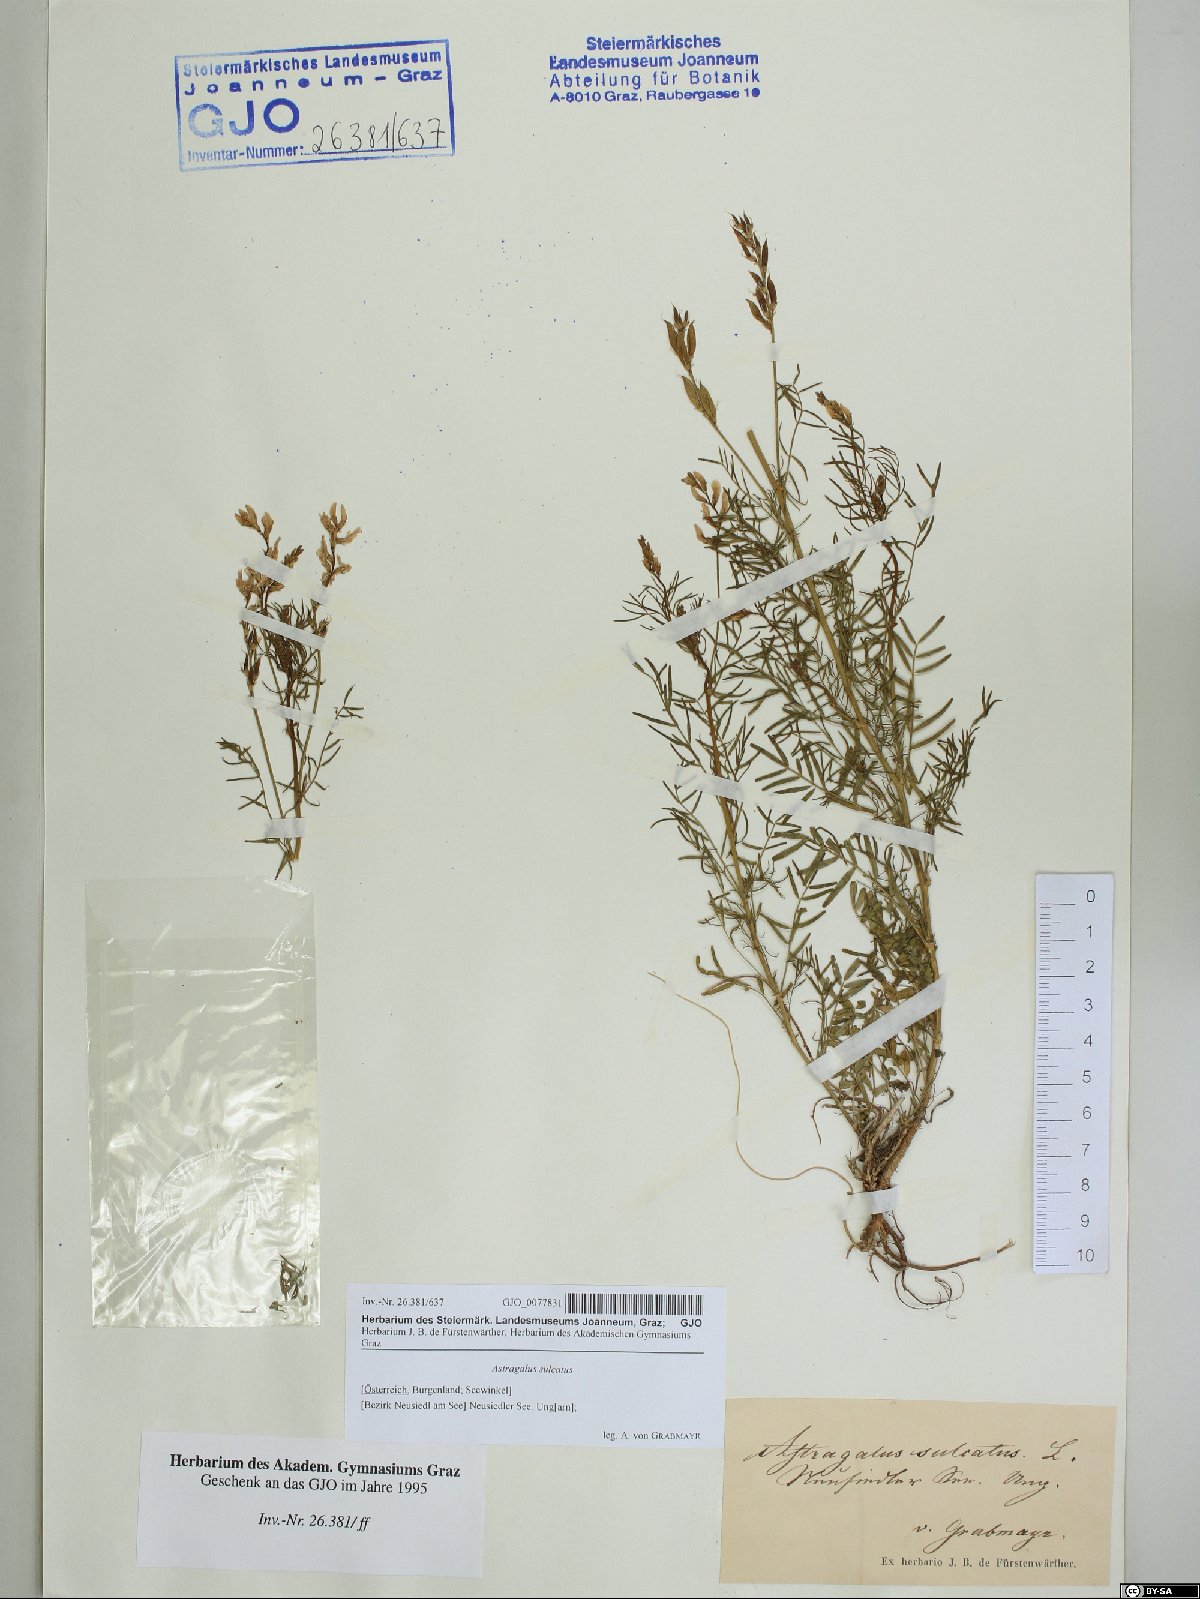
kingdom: Plantae
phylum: Tracheophyta
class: Magnoliopsida
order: Fabales
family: Fabaceae
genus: Astragalus
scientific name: Astragalus sulcatus
